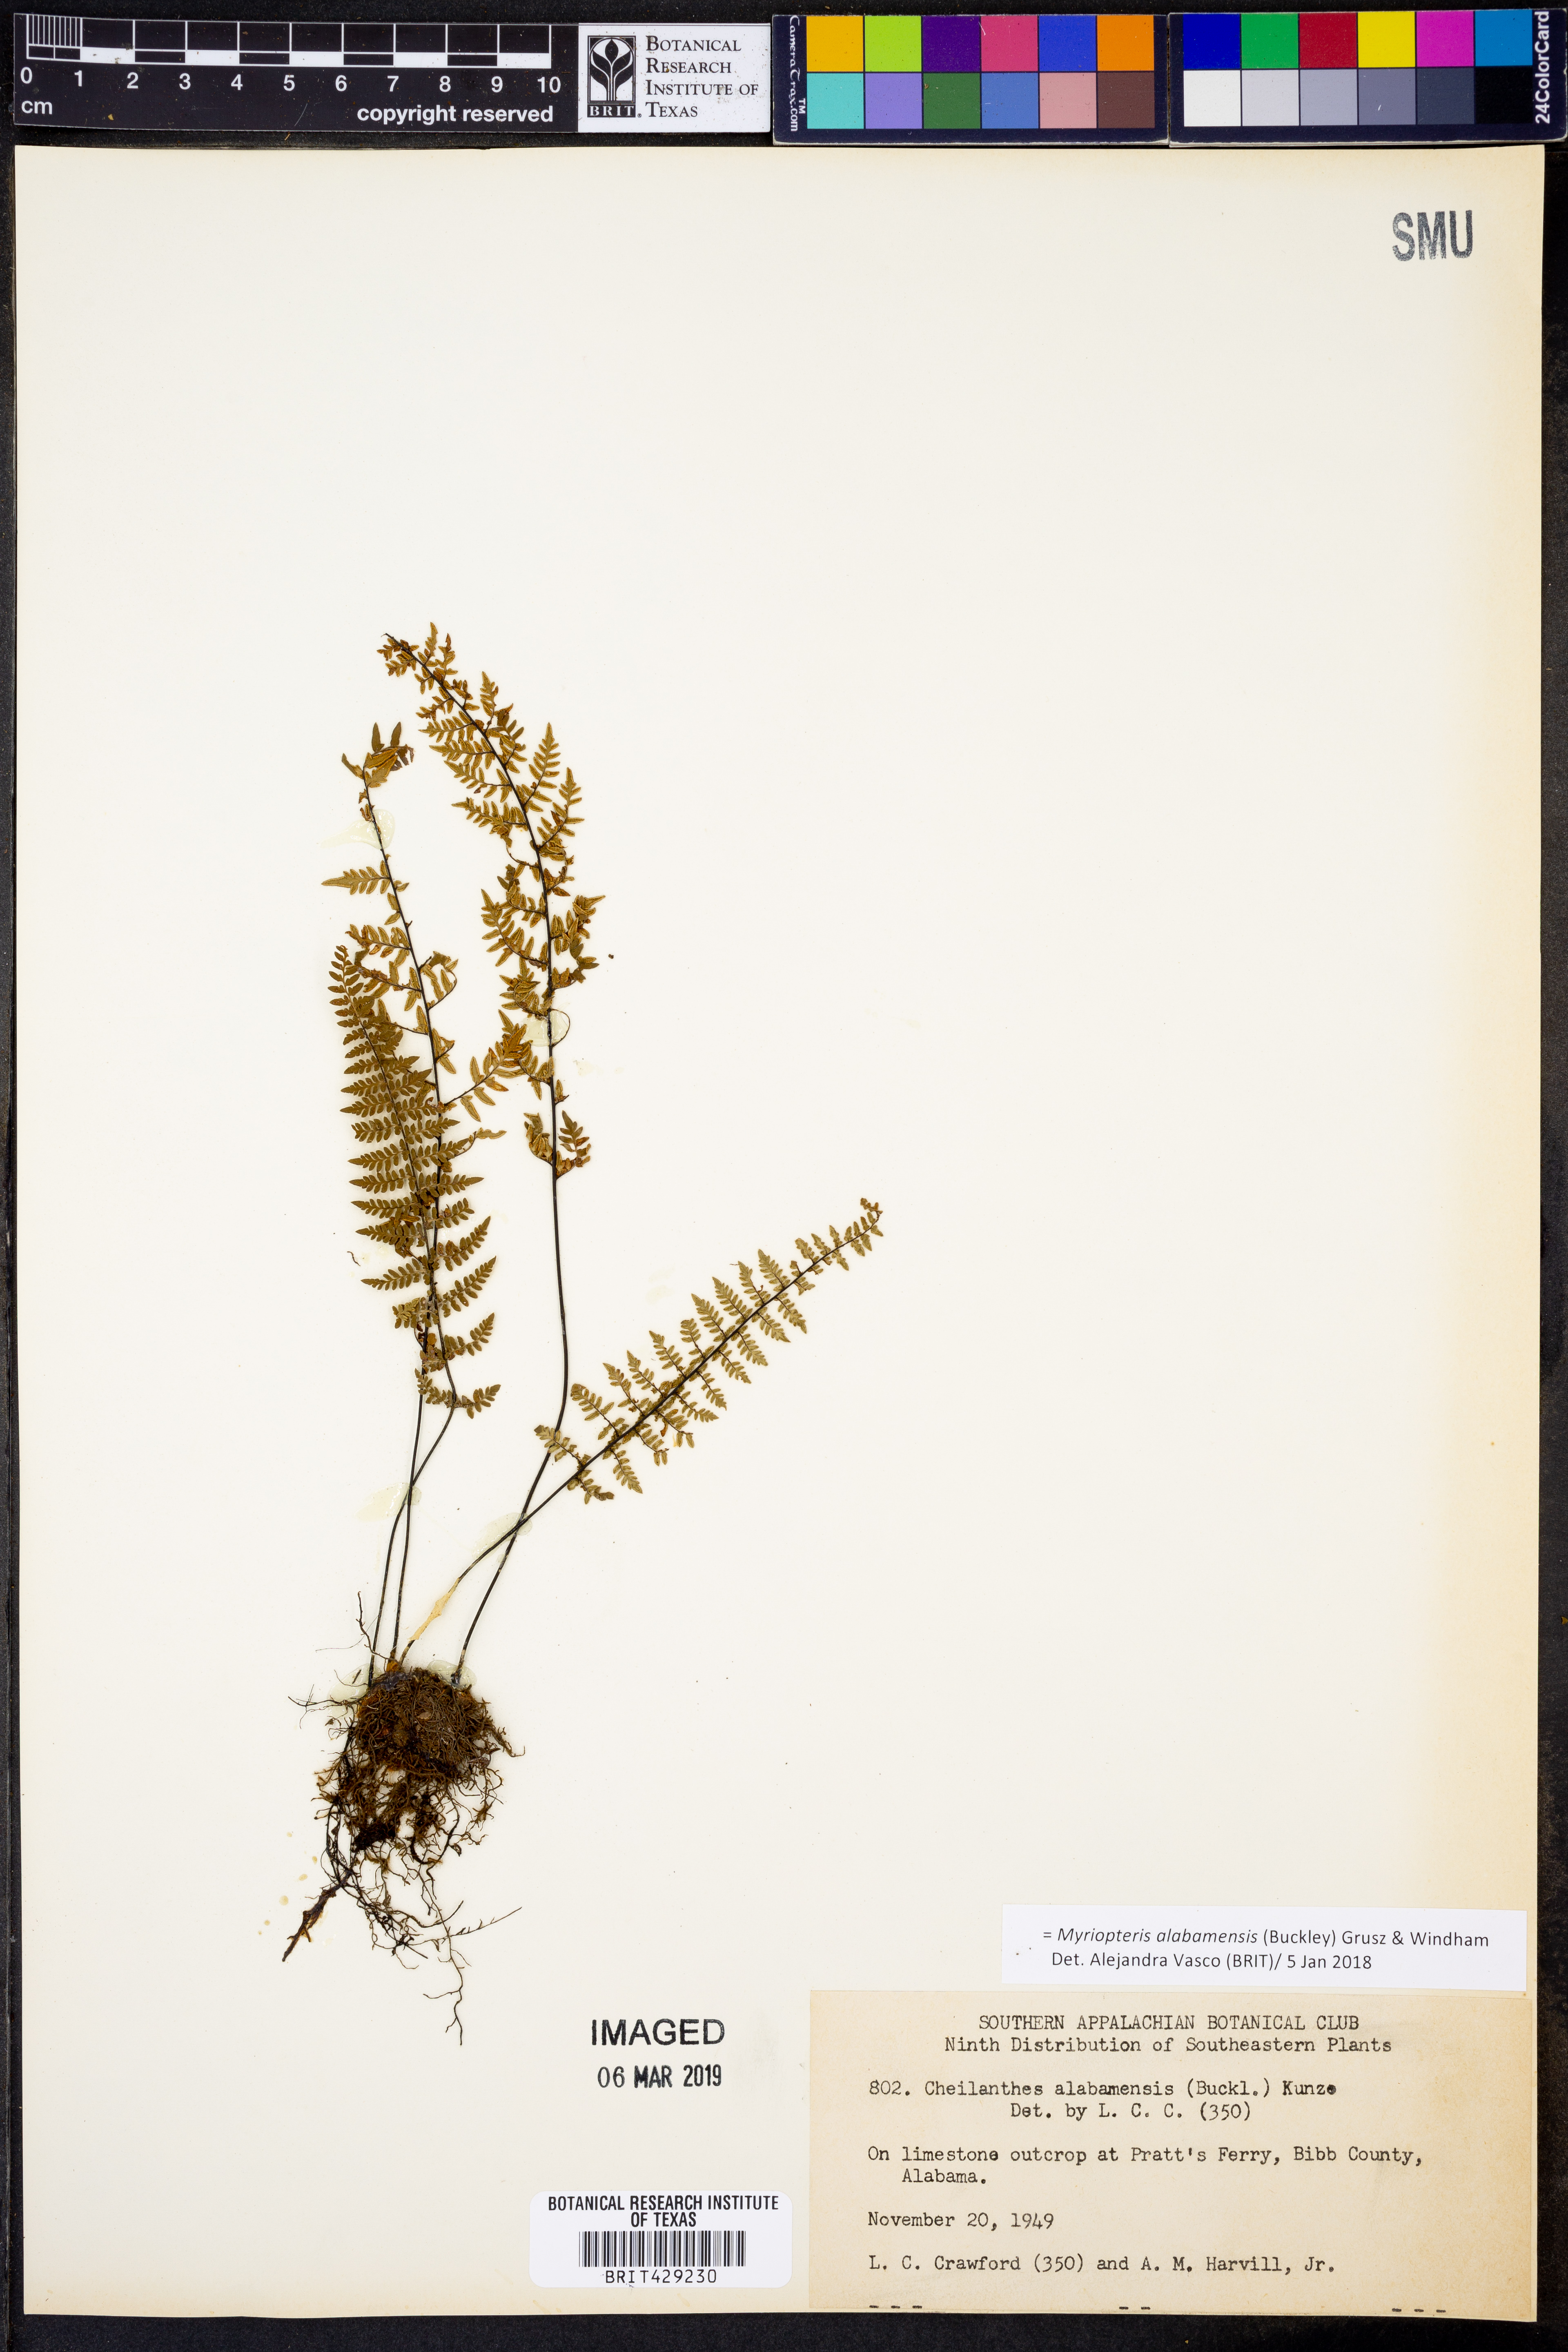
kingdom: Plantae
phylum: Tracheophyta
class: Polypodiopsida
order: Polypodiales
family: Pteridaceae
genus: Myriopteris
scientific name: Myriopteris alabamensis
